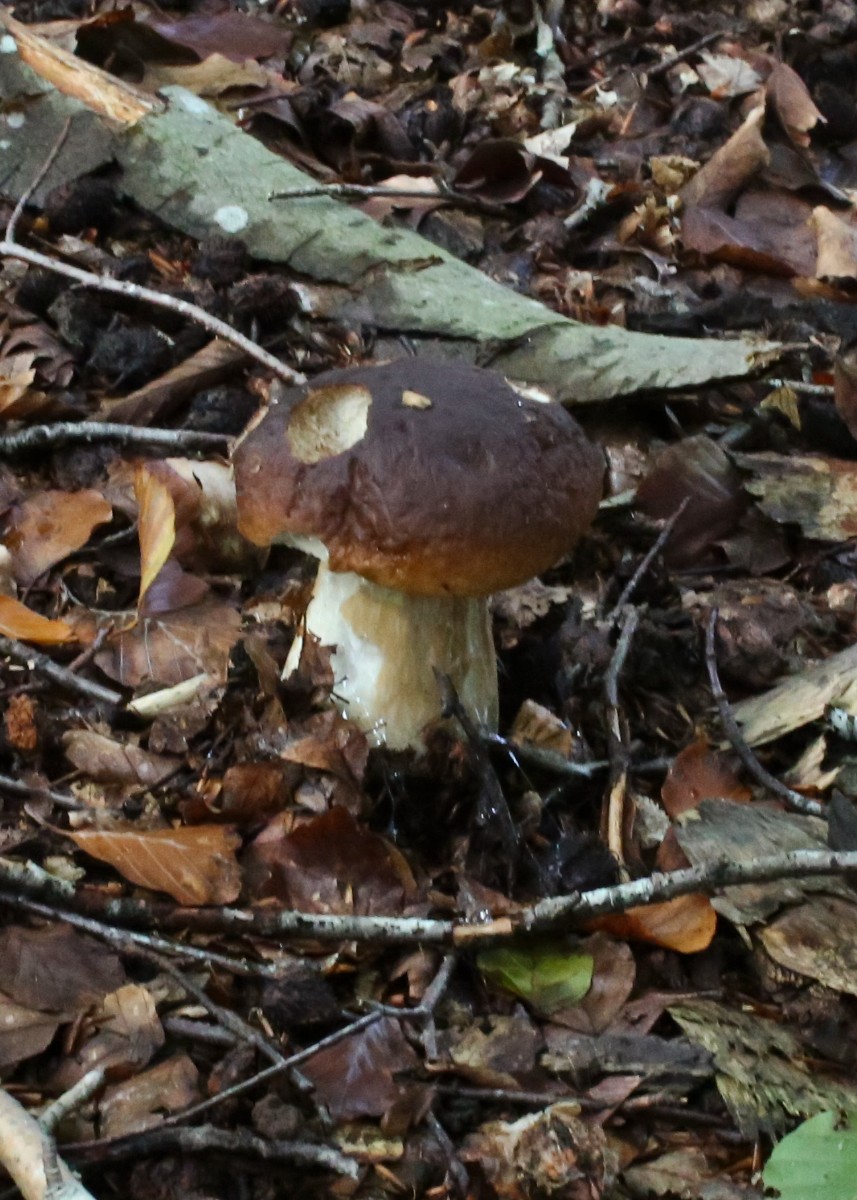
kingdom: Fungi
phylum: Basidiomycota
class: Agaricomycetes
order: Boletales
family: Boletaceae
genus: Boletus
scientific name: Boletus edulis
